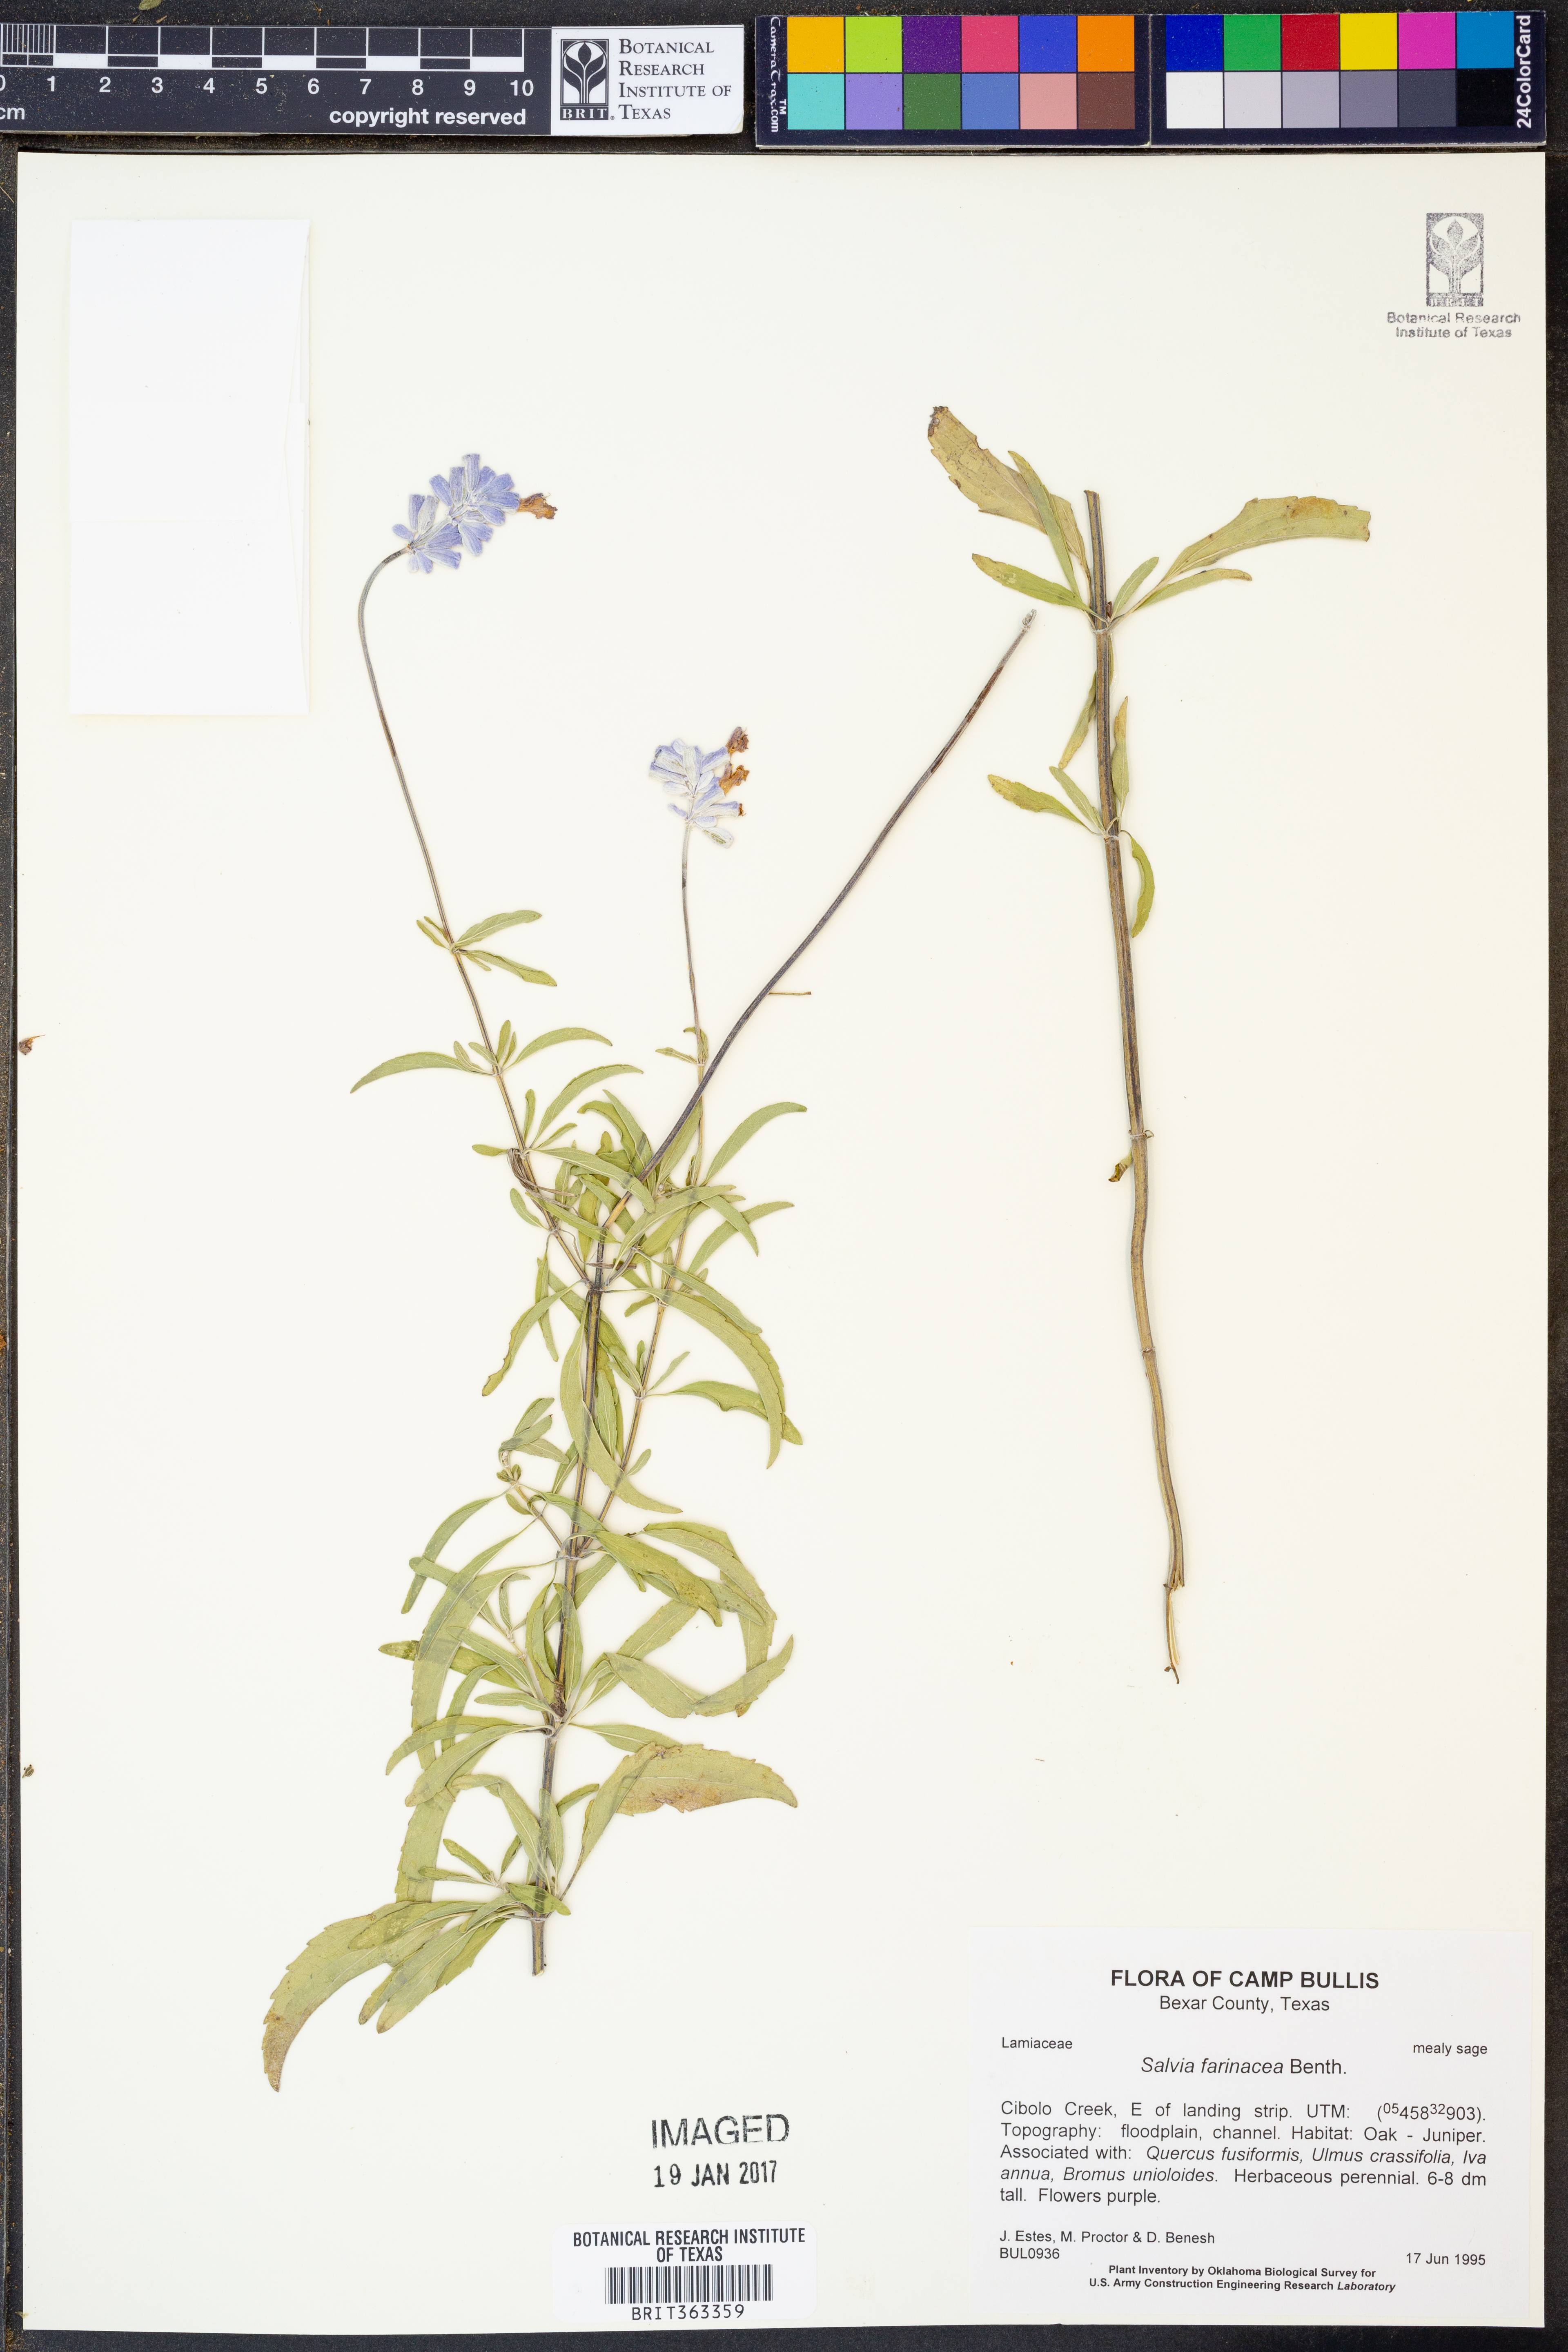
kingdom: Plantae
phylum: Tracheophyta
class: Magnoliopsida
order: Lamiales
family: Lamiaceae
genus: Salvia
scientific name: Salvia farinacea
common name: Mealy sage
